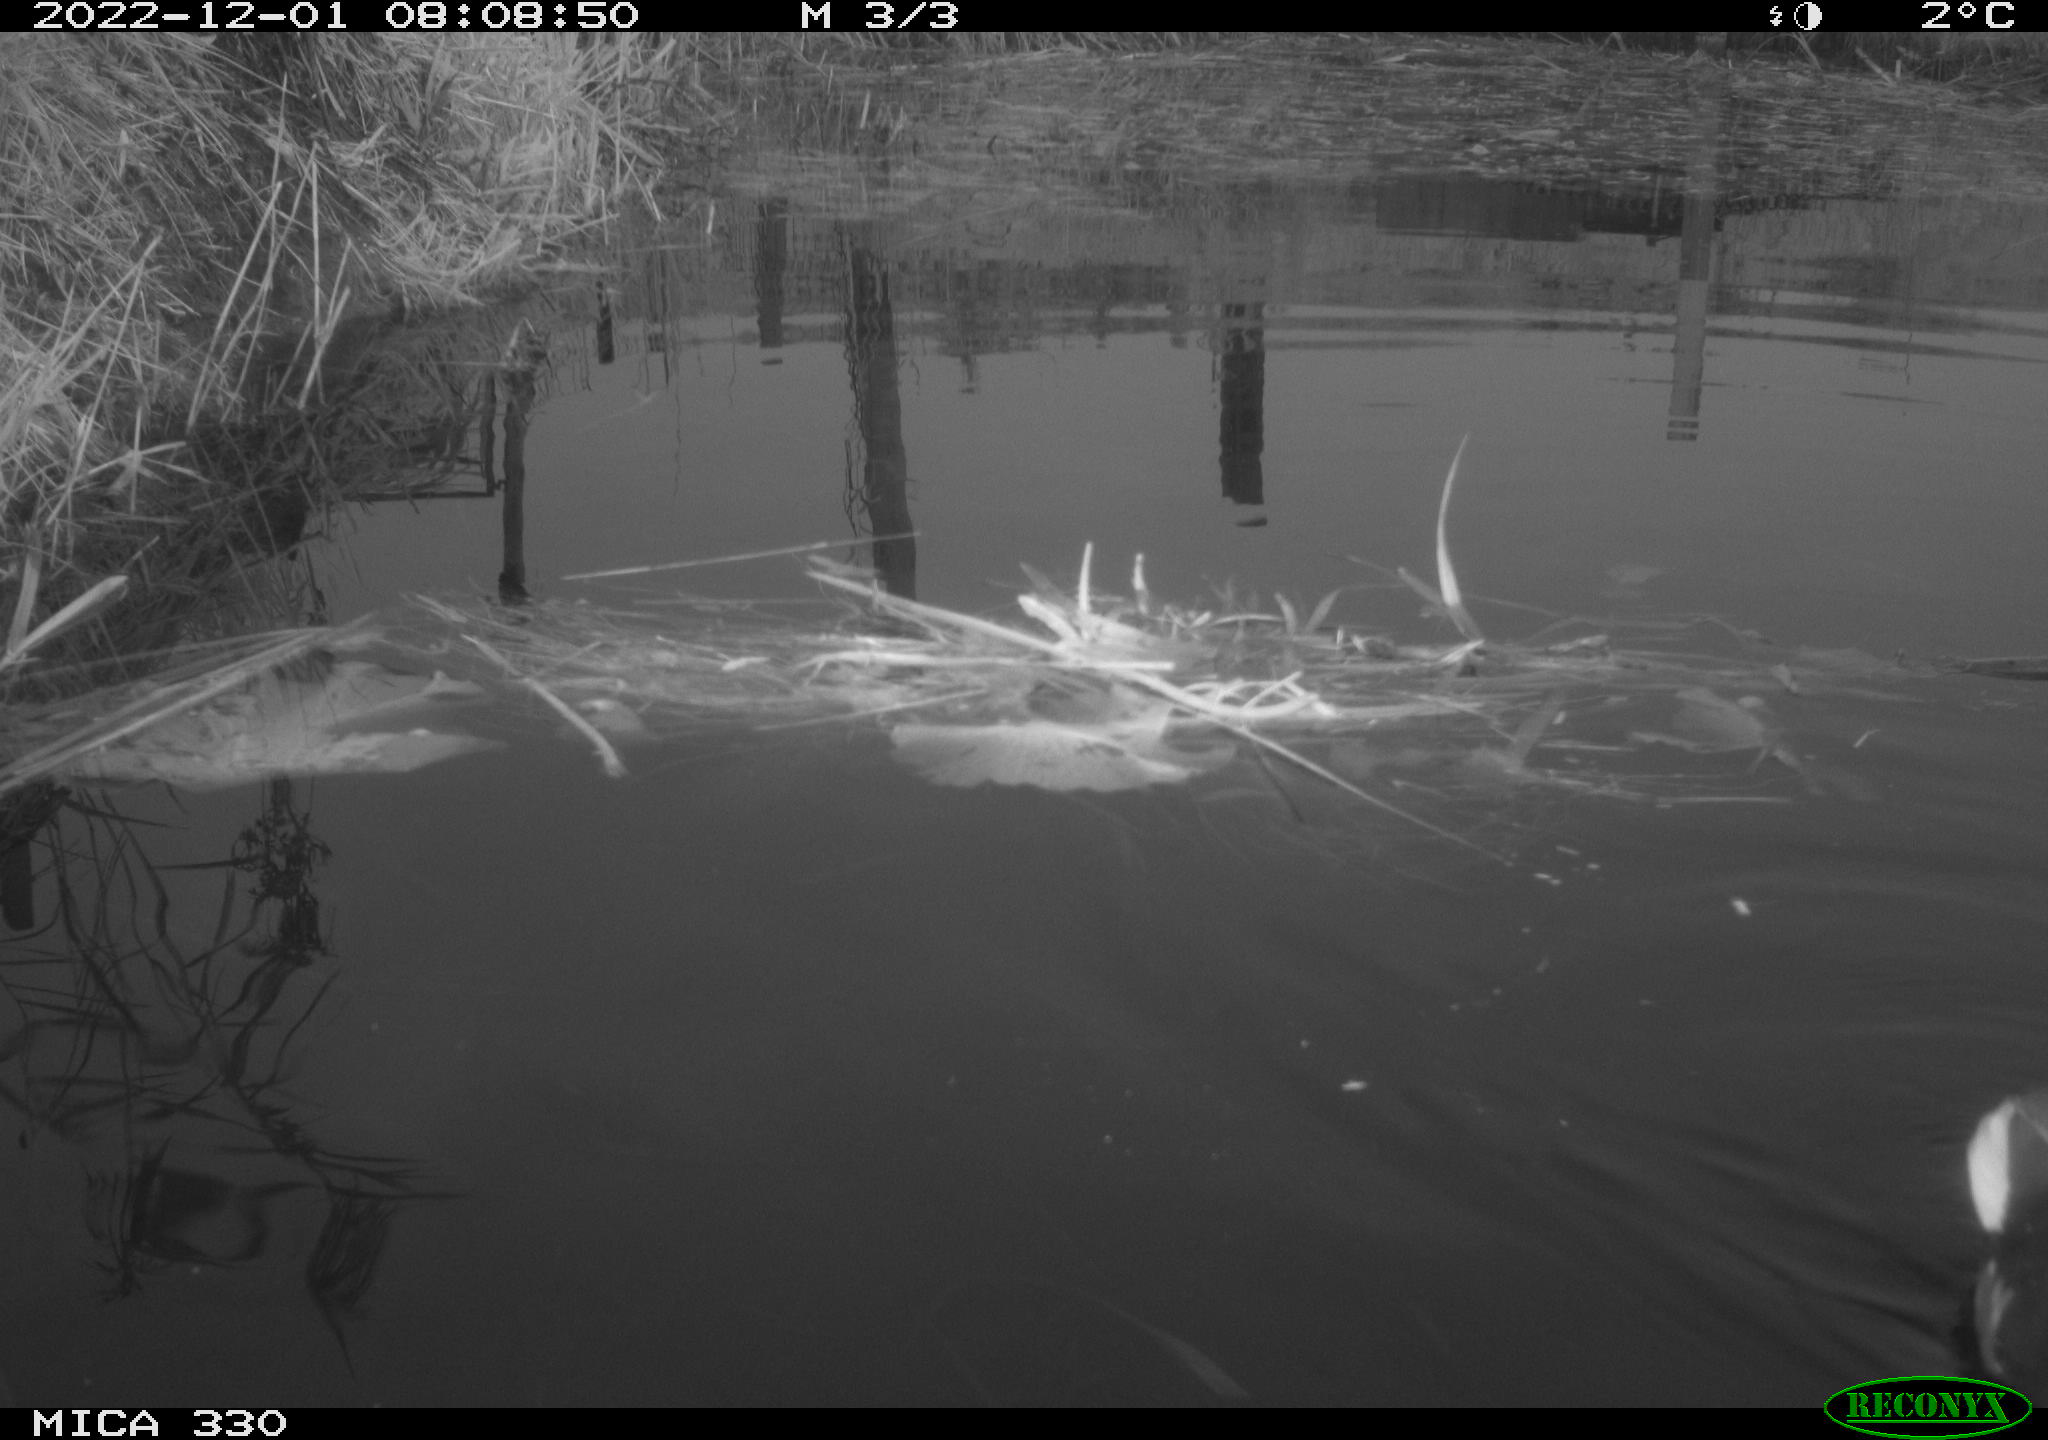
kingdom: Animalia
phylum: Chordata
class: Aves
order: Gruiformes
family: Rallidae
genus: Gallinula
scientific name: Gallinula chloropus
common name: Common moorhen
